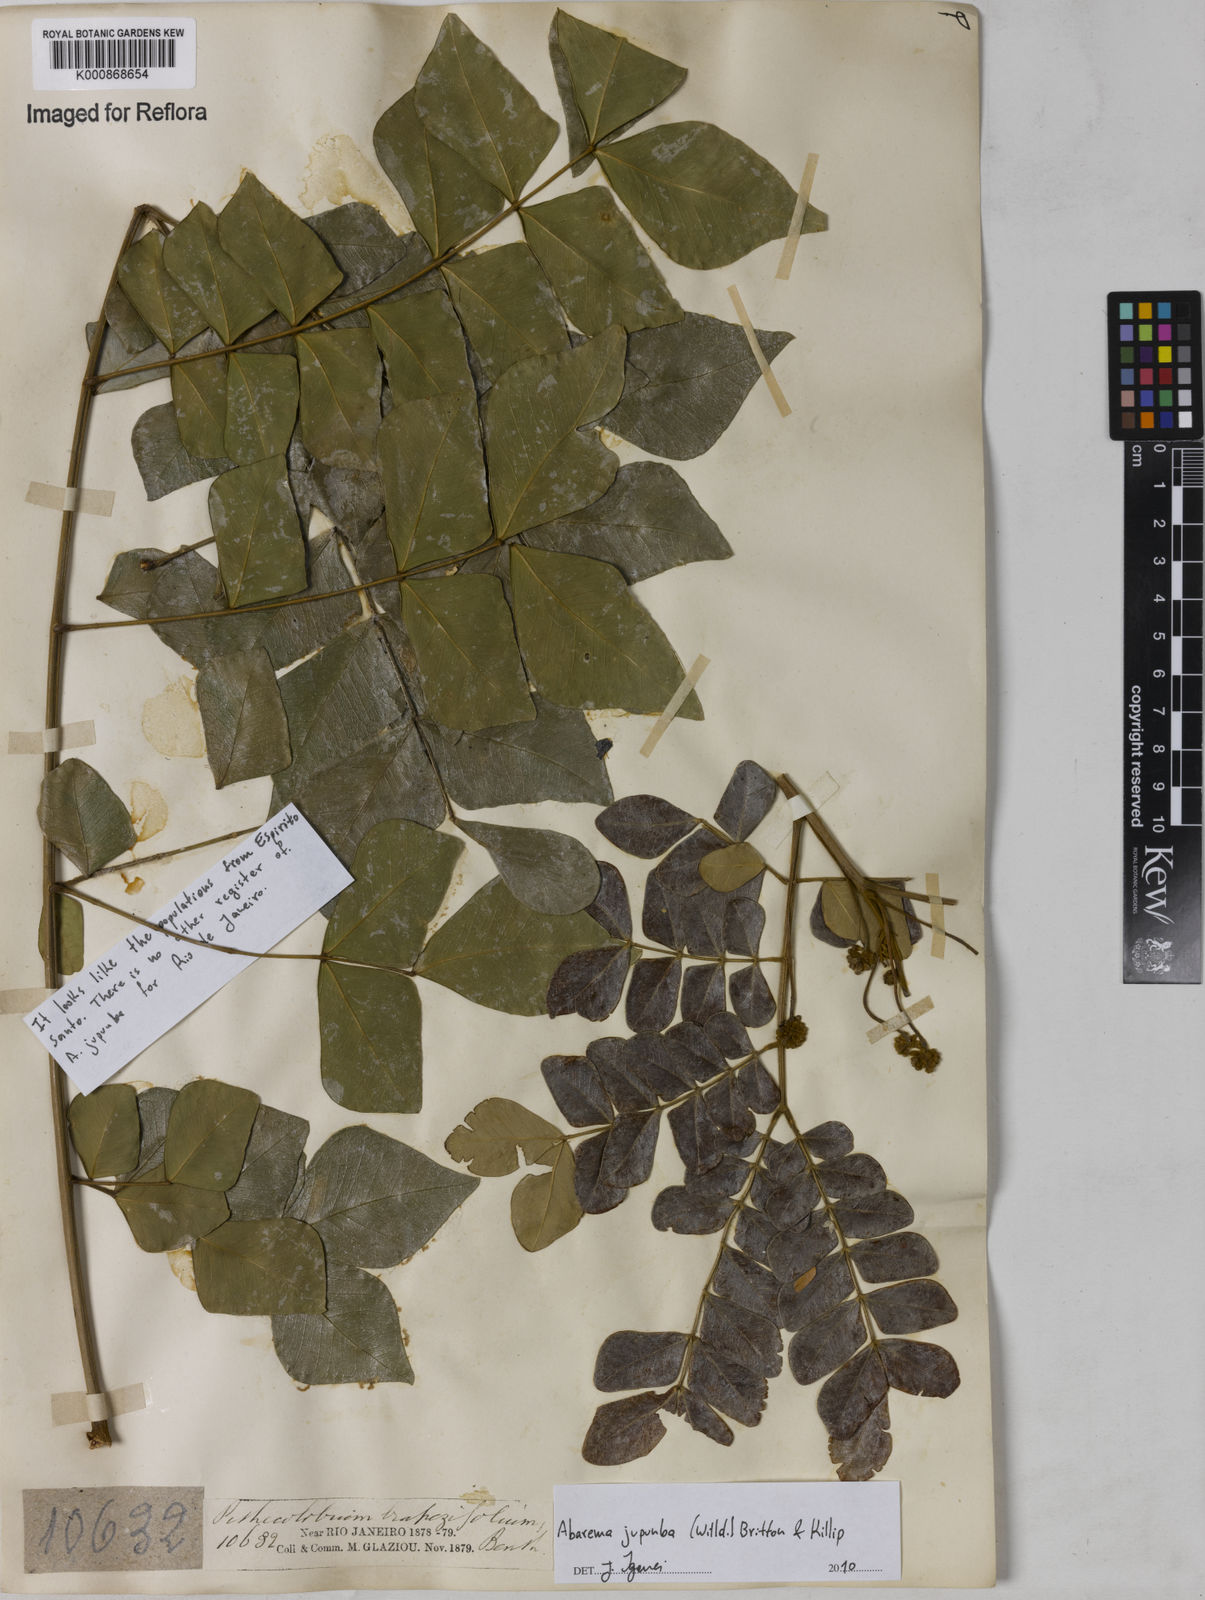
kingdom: Plantae
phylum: Tracheophyta
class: Magnoliopsida
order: Fabales
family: Fabaceae
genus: Jupunba
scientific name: Jupunba trapezifolia
